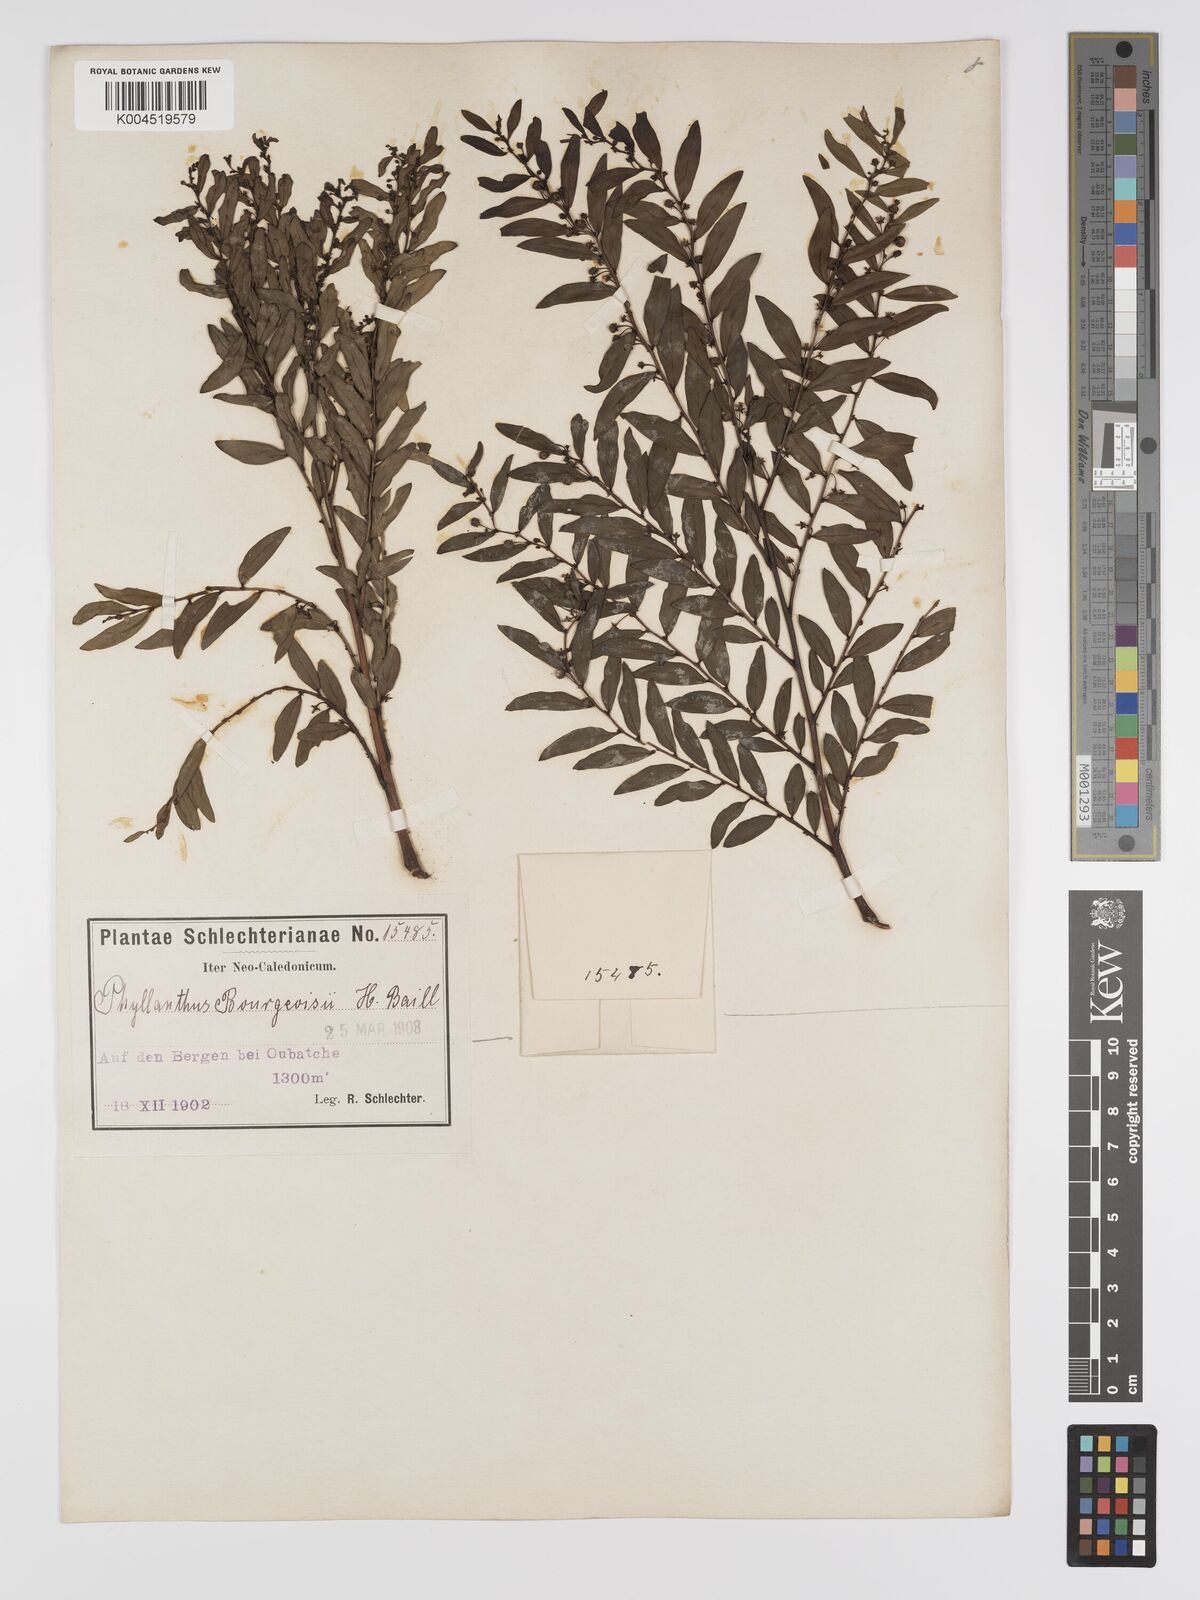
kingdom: Plantae
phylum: Tracheophyta
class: Magnoliopsida
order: Malpighiales
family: Phyllanthaceae
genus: Phyllanthus
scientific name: Phyllanthus bourgeoisii
